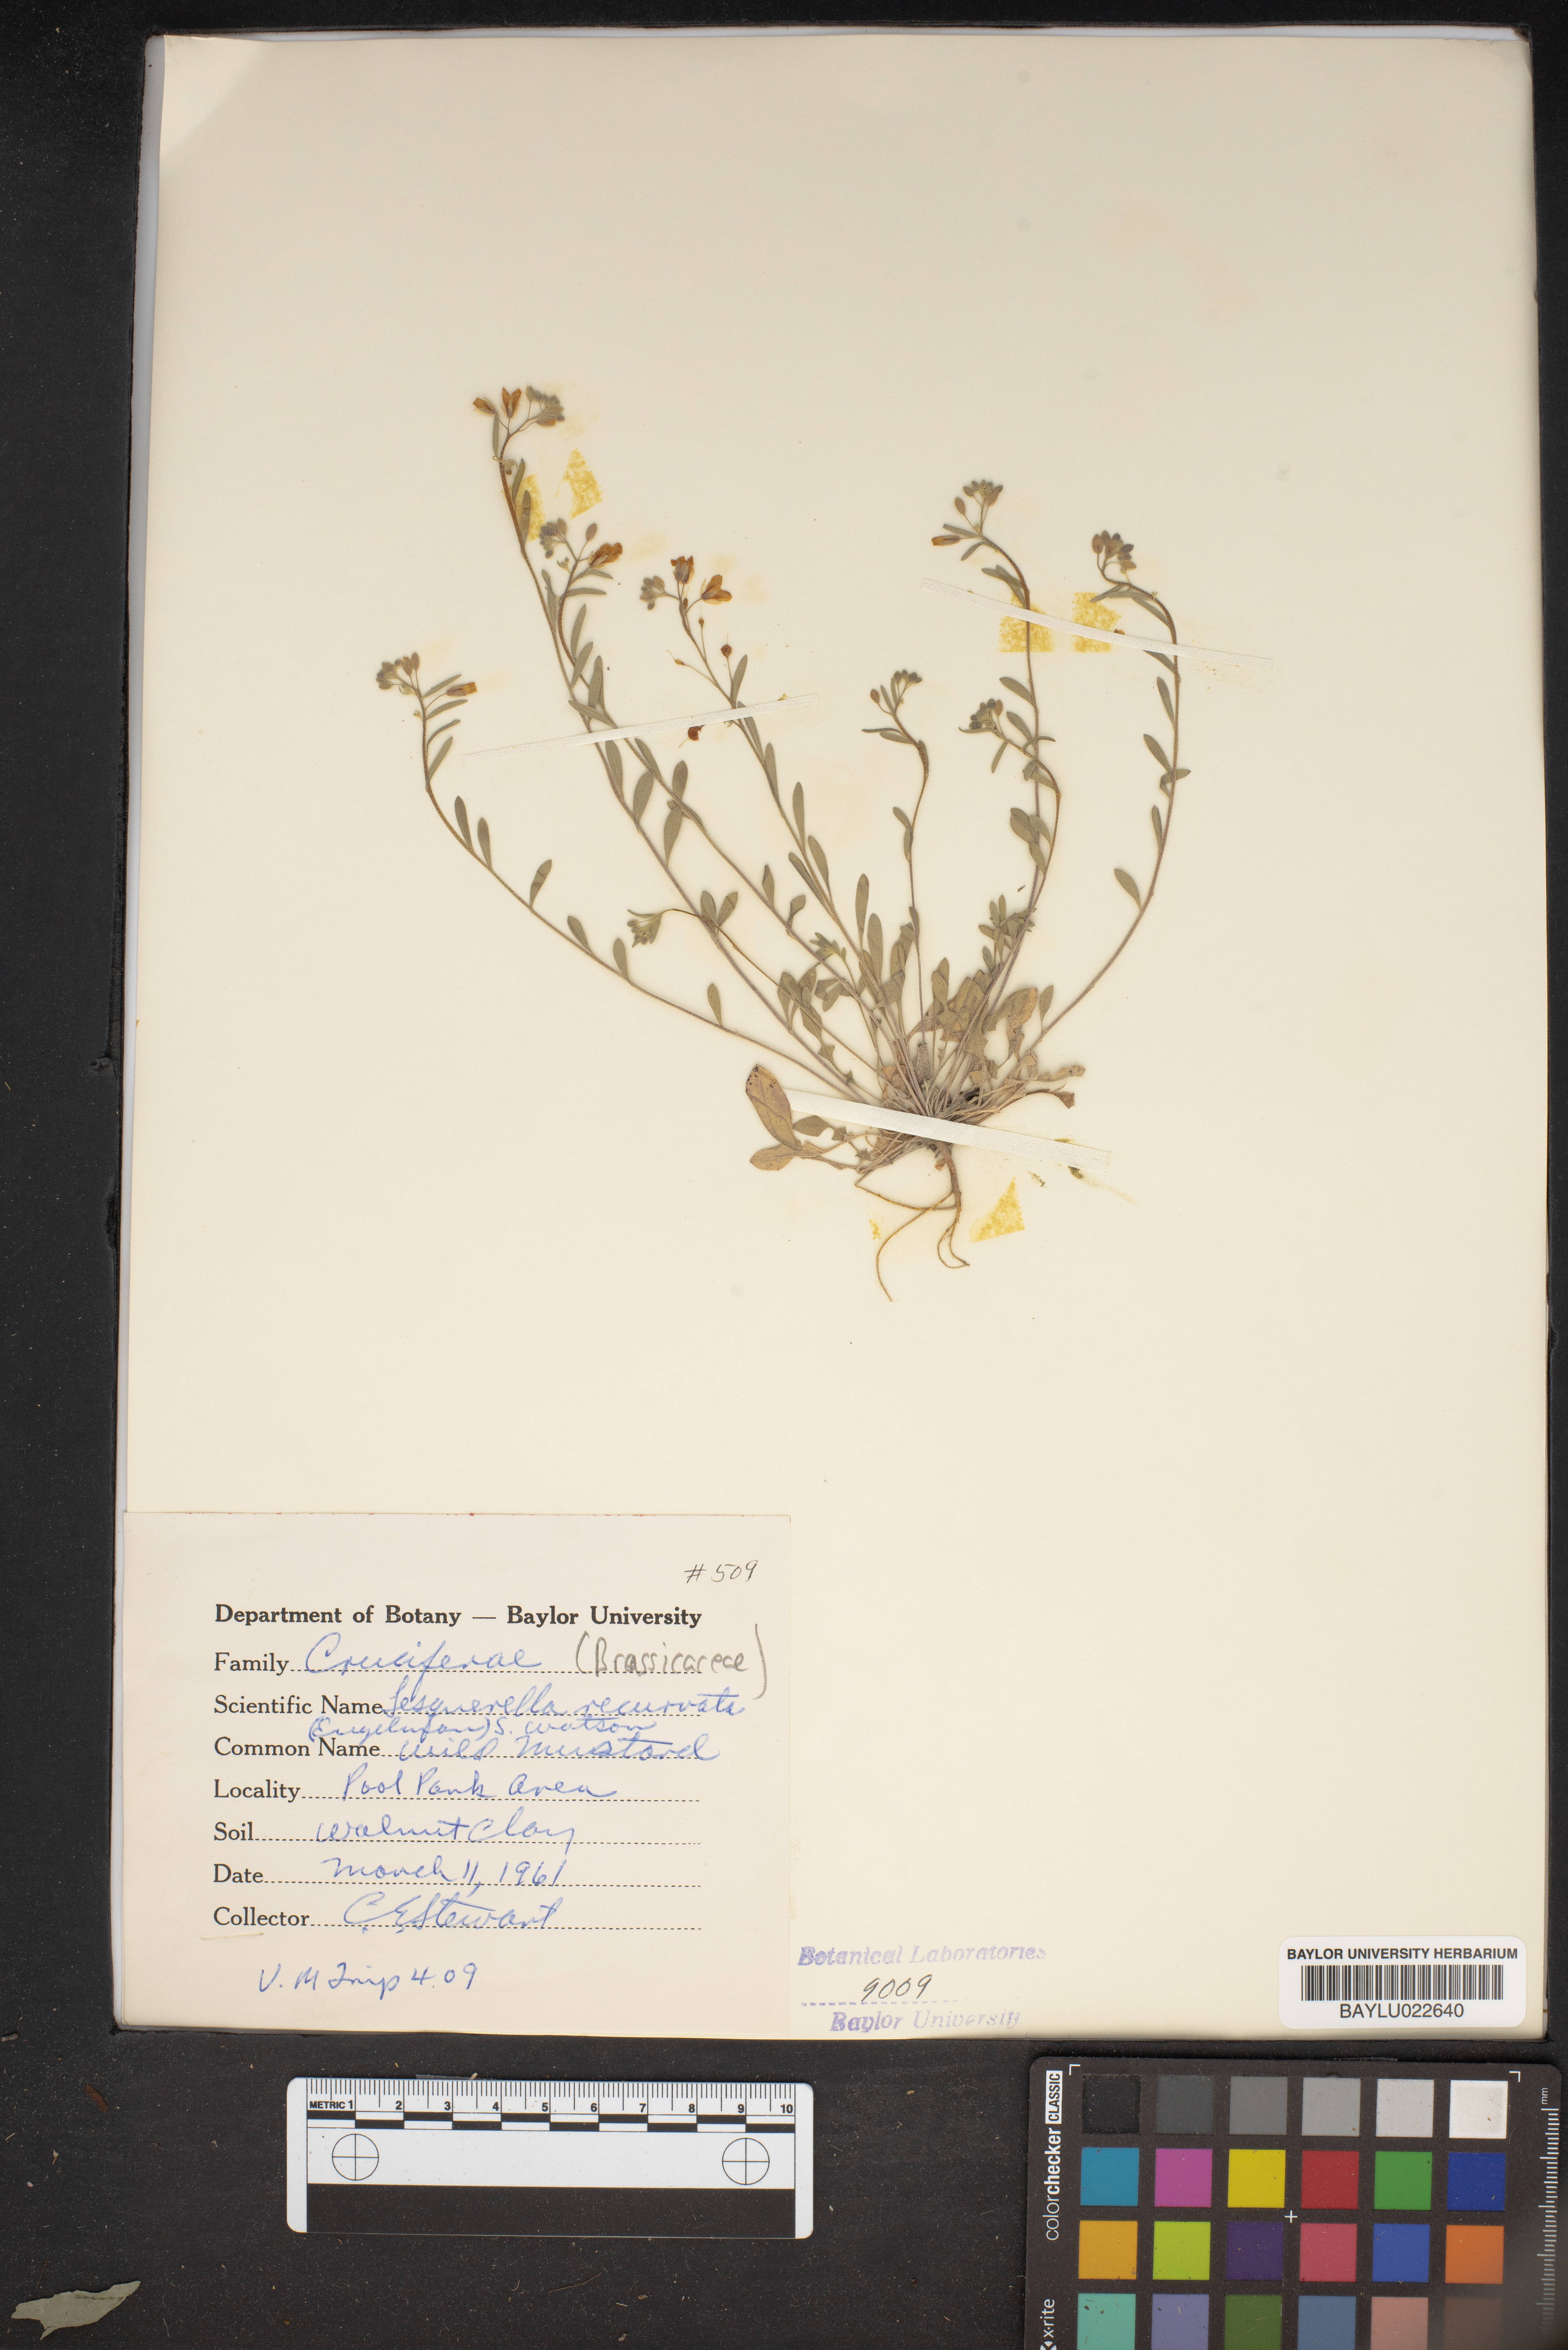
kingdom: Plantae
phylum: Tracheophyta
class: Magnoliopsida
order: Brassicales
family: Brassicaceae
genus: Physaria
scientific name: Physaria recurvata
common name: Gaslight bladderpod
